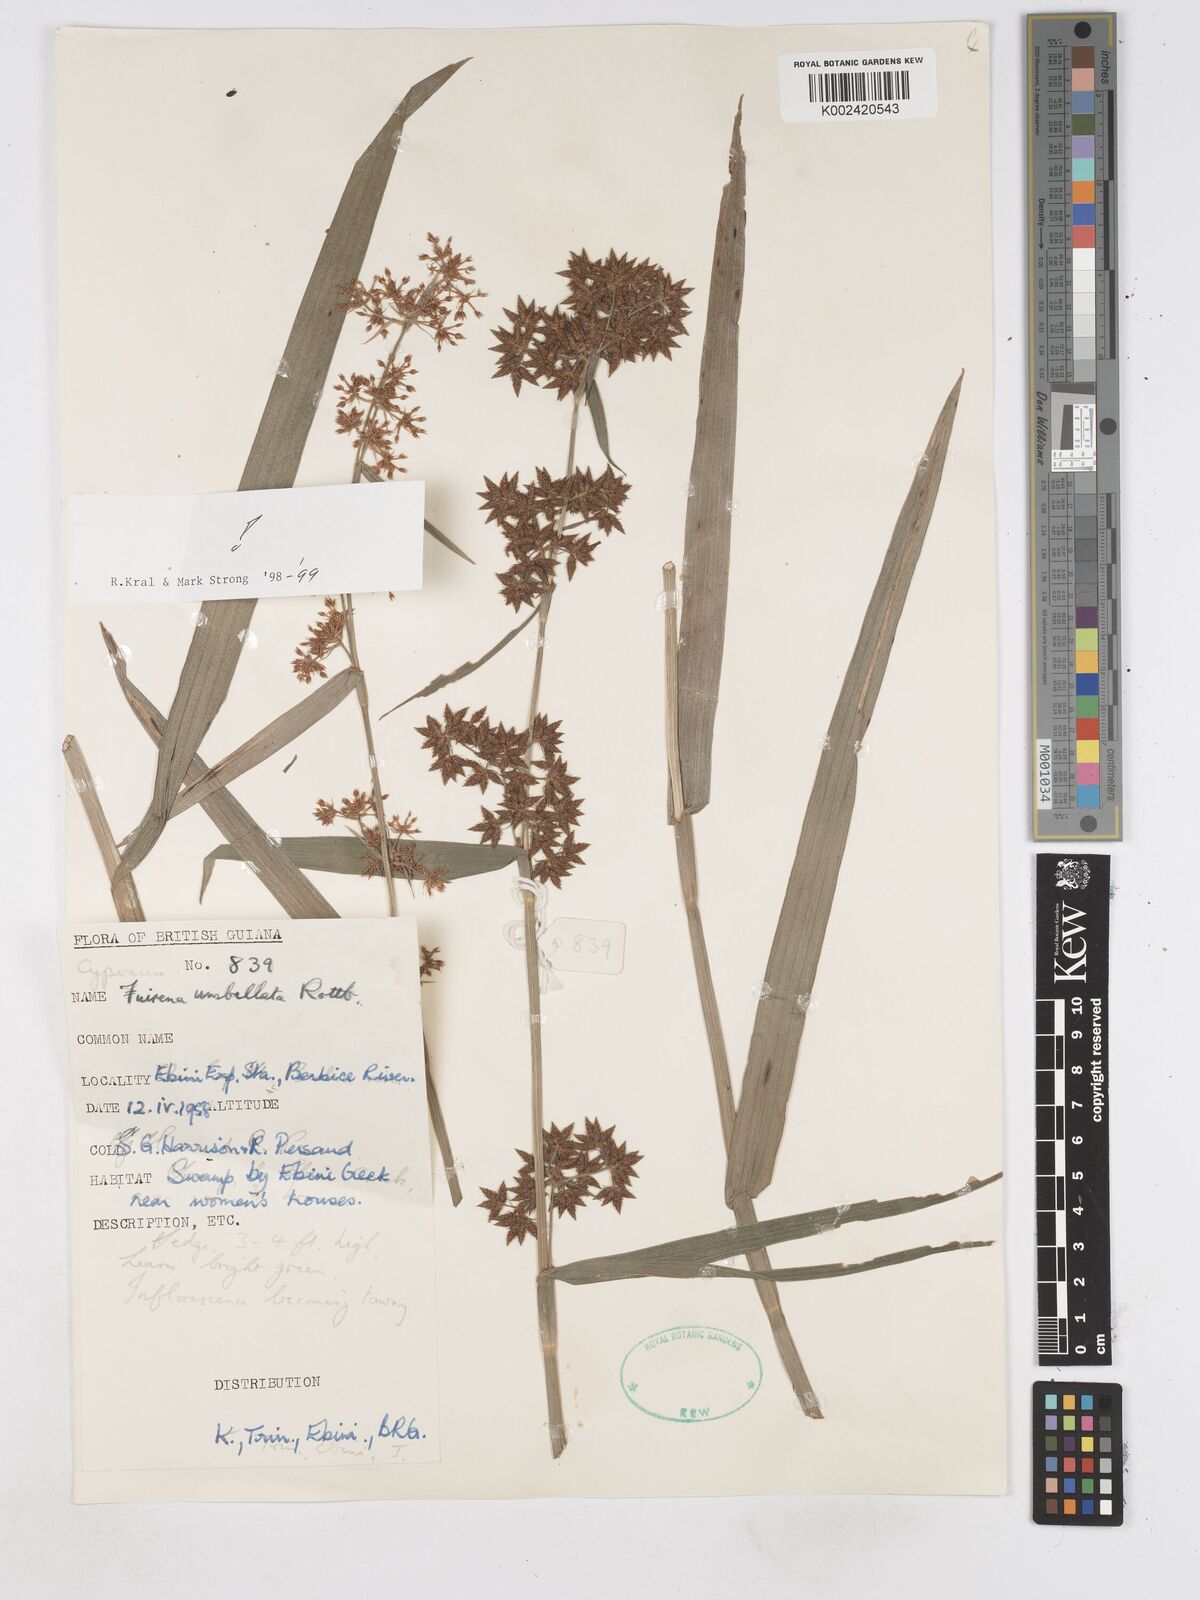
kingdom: Plantae
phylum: Tracheophyta
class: Liliopsida
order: Poales
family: Cyperaceae
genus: Fuirena
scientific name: Fuirena umbellata
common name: Yefen
